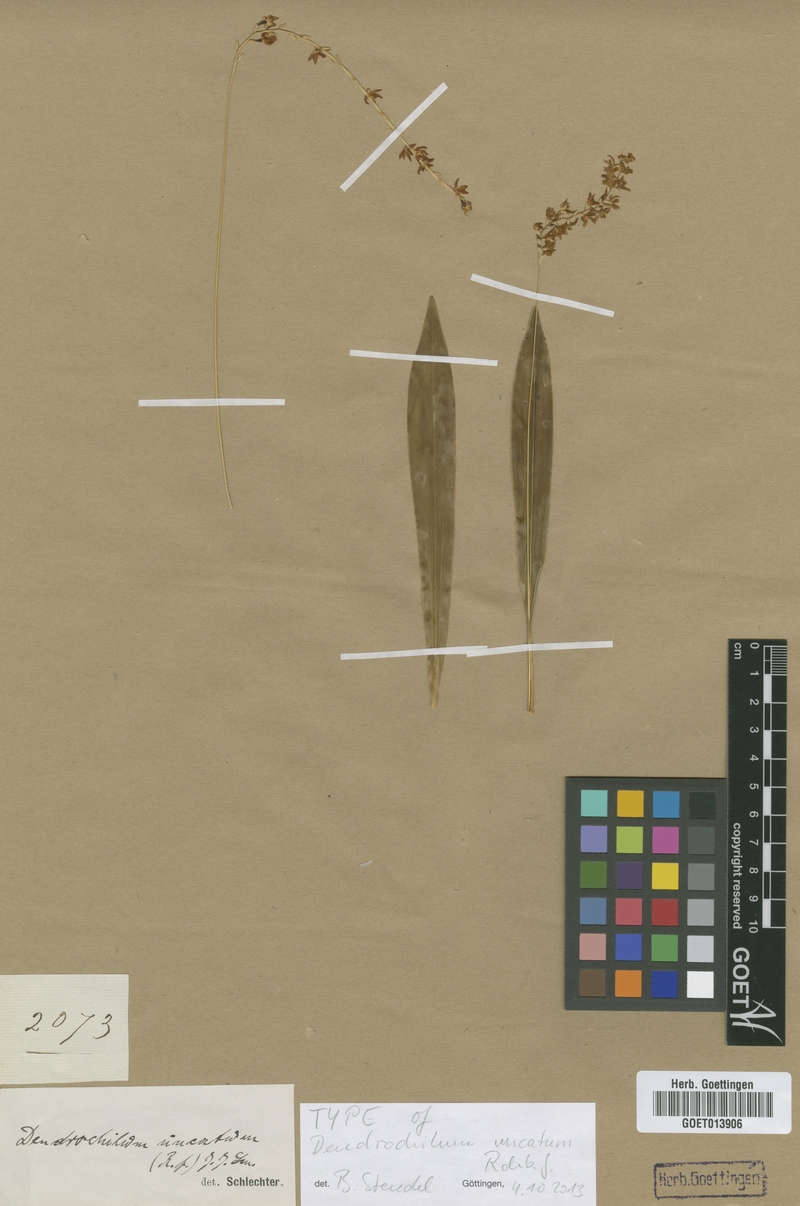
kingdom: Plantae
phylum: Tracheophyta
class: Liliopsida
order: Asparagales
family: Orchidaceae
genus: Coelogyne
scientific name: Coelogyne uncata
